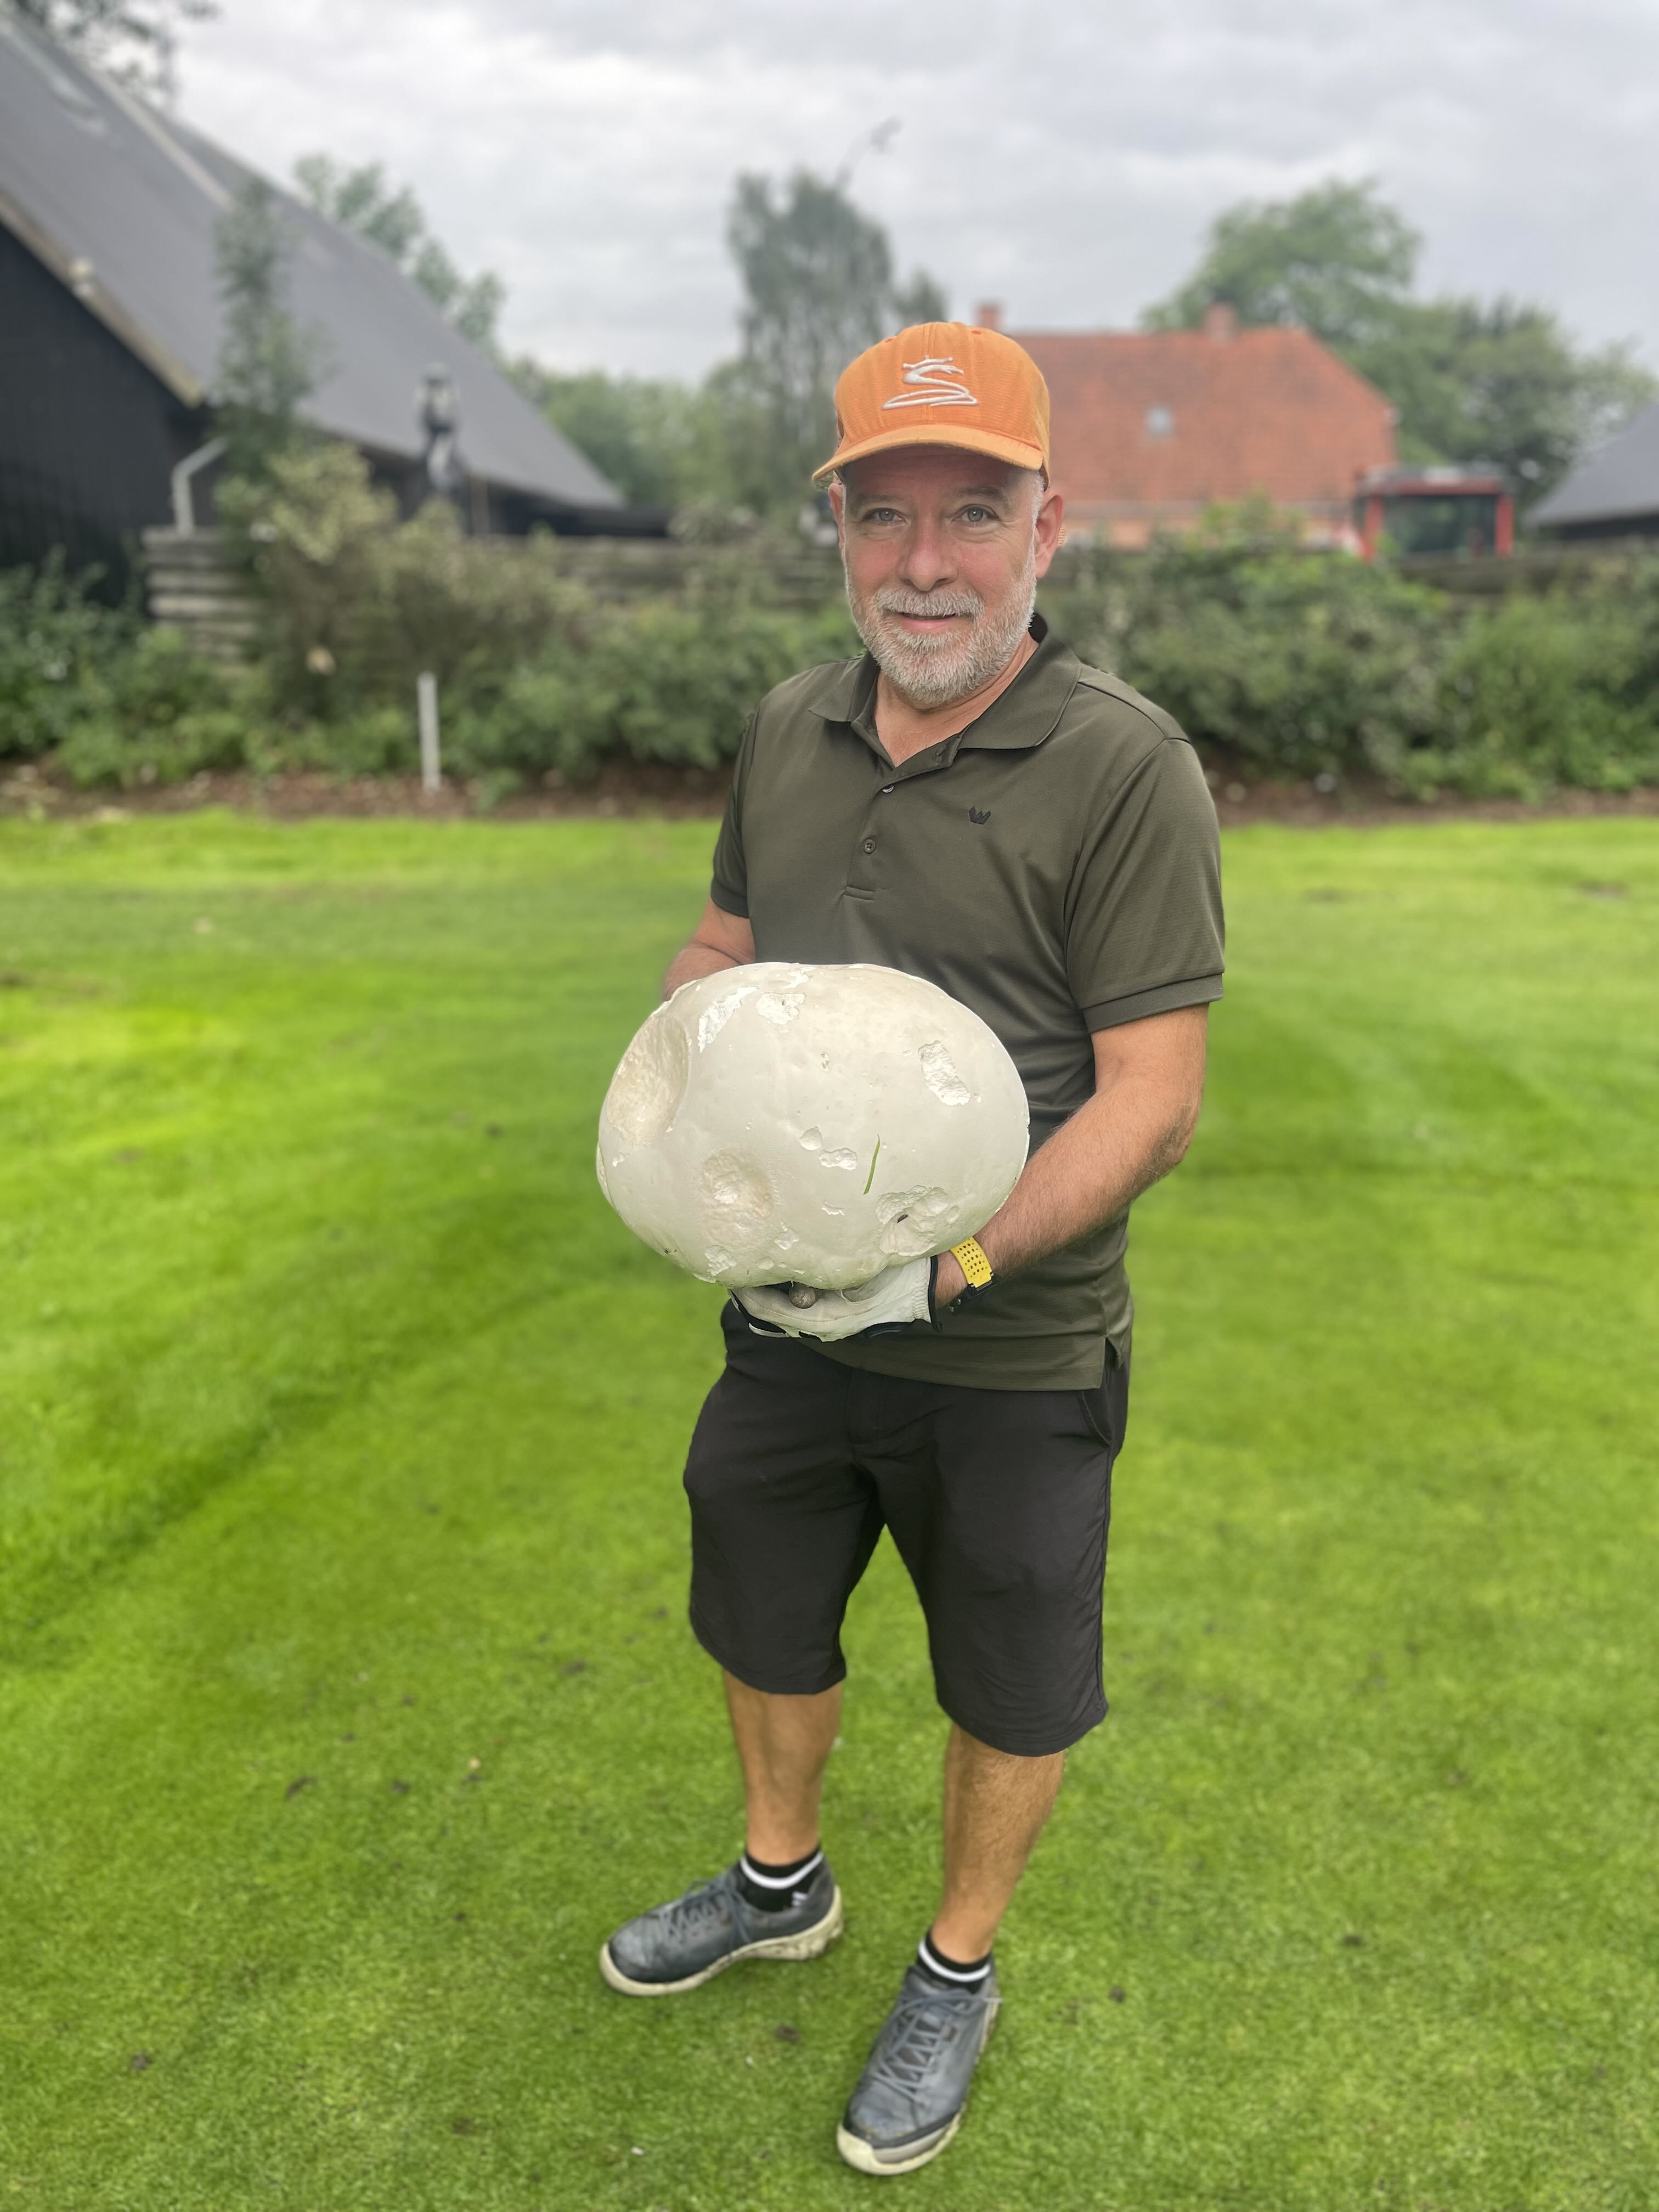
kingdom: Fungi
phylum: Basidiomycota
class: Agaricomycetes
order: Agaricales
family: Lycoperdaceae
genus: Calvatia
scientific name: Calvatia gigantea
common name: kæmpestøvbold
